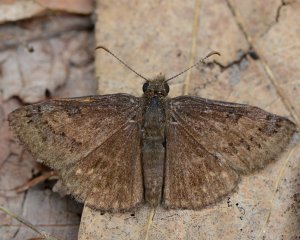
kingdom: Animalia
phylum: Arthropoda
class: Insecta
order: Lepidoptera
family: Hesperiidae
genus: Erynnis
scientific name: Erynnis brizo
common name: Sleepy Duskywing
